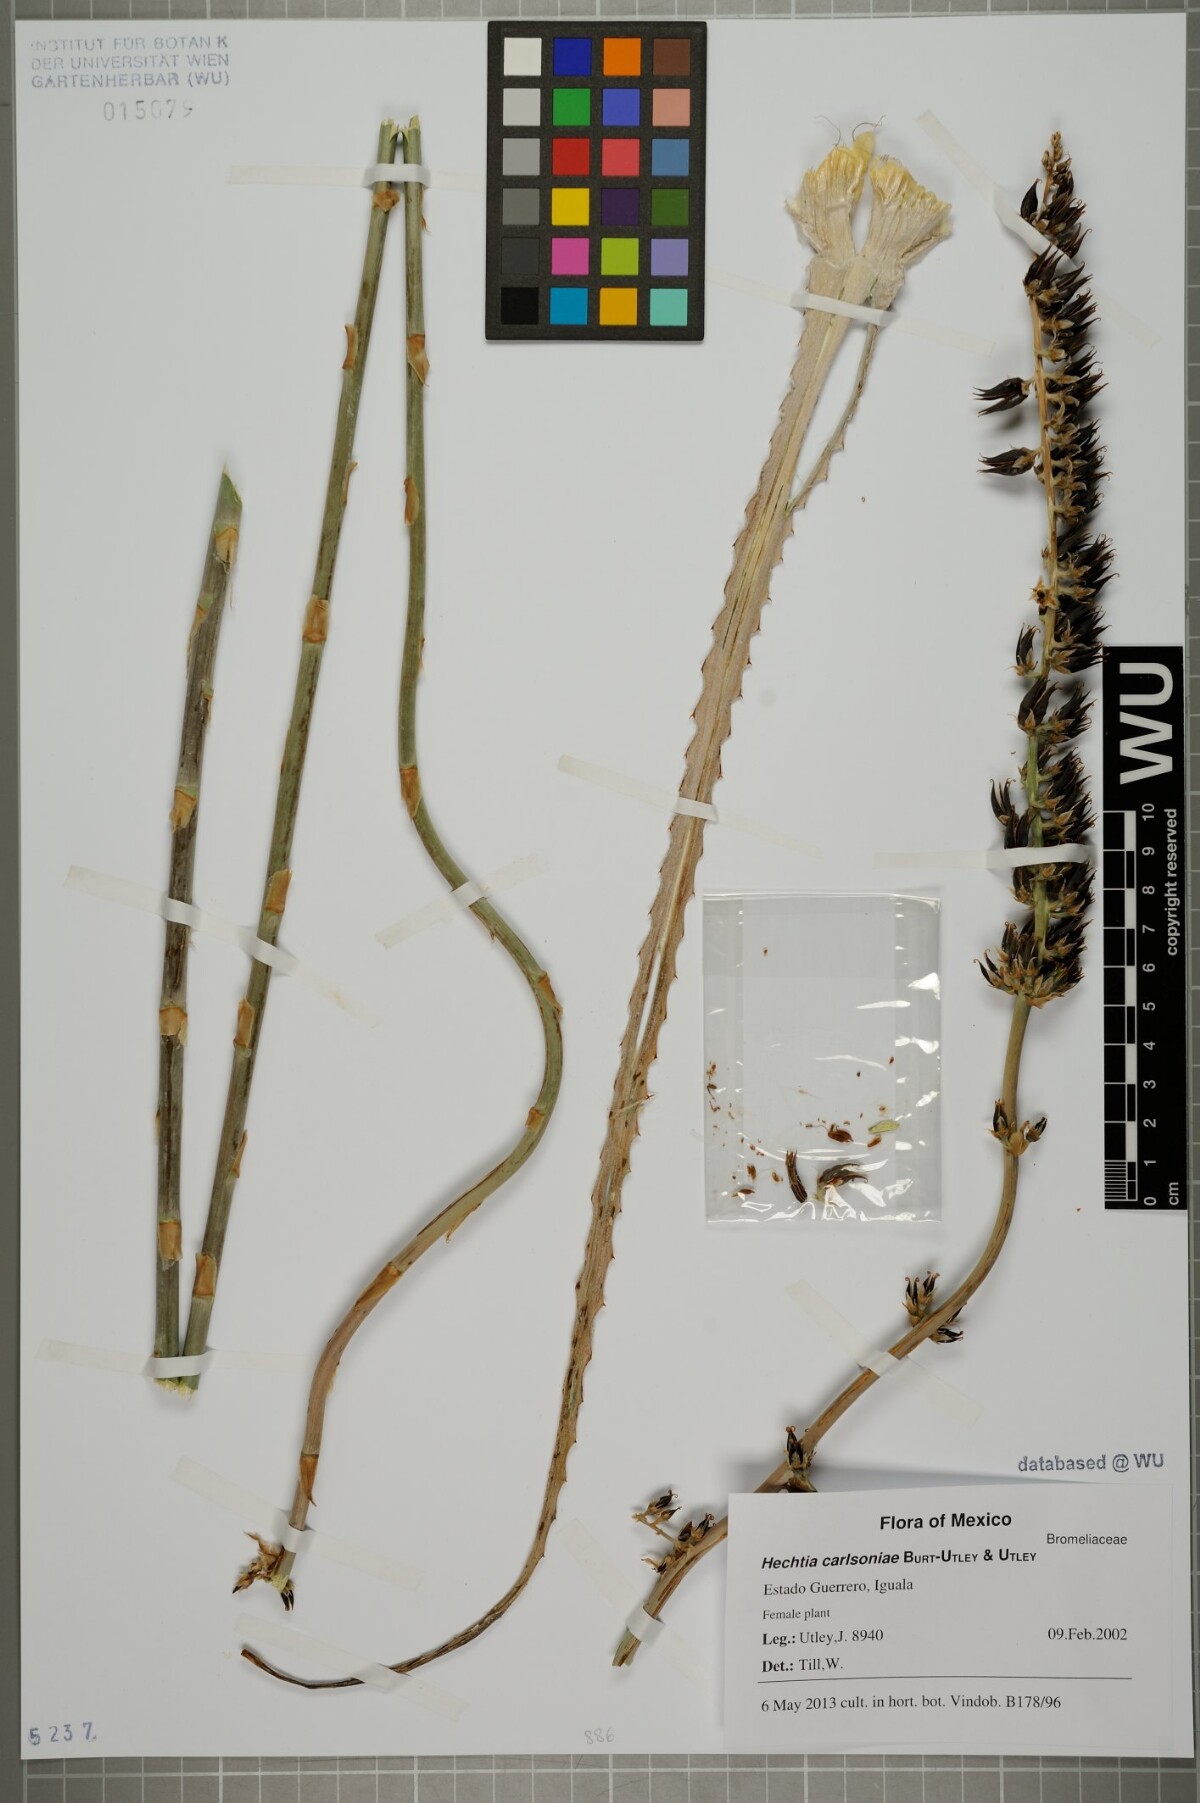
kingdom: Plantae
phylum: Tracheophyta
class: Liliopsida
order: Poales
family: Bromeliaceae
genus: Hechtia
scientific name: Hechtia carlsoniae
